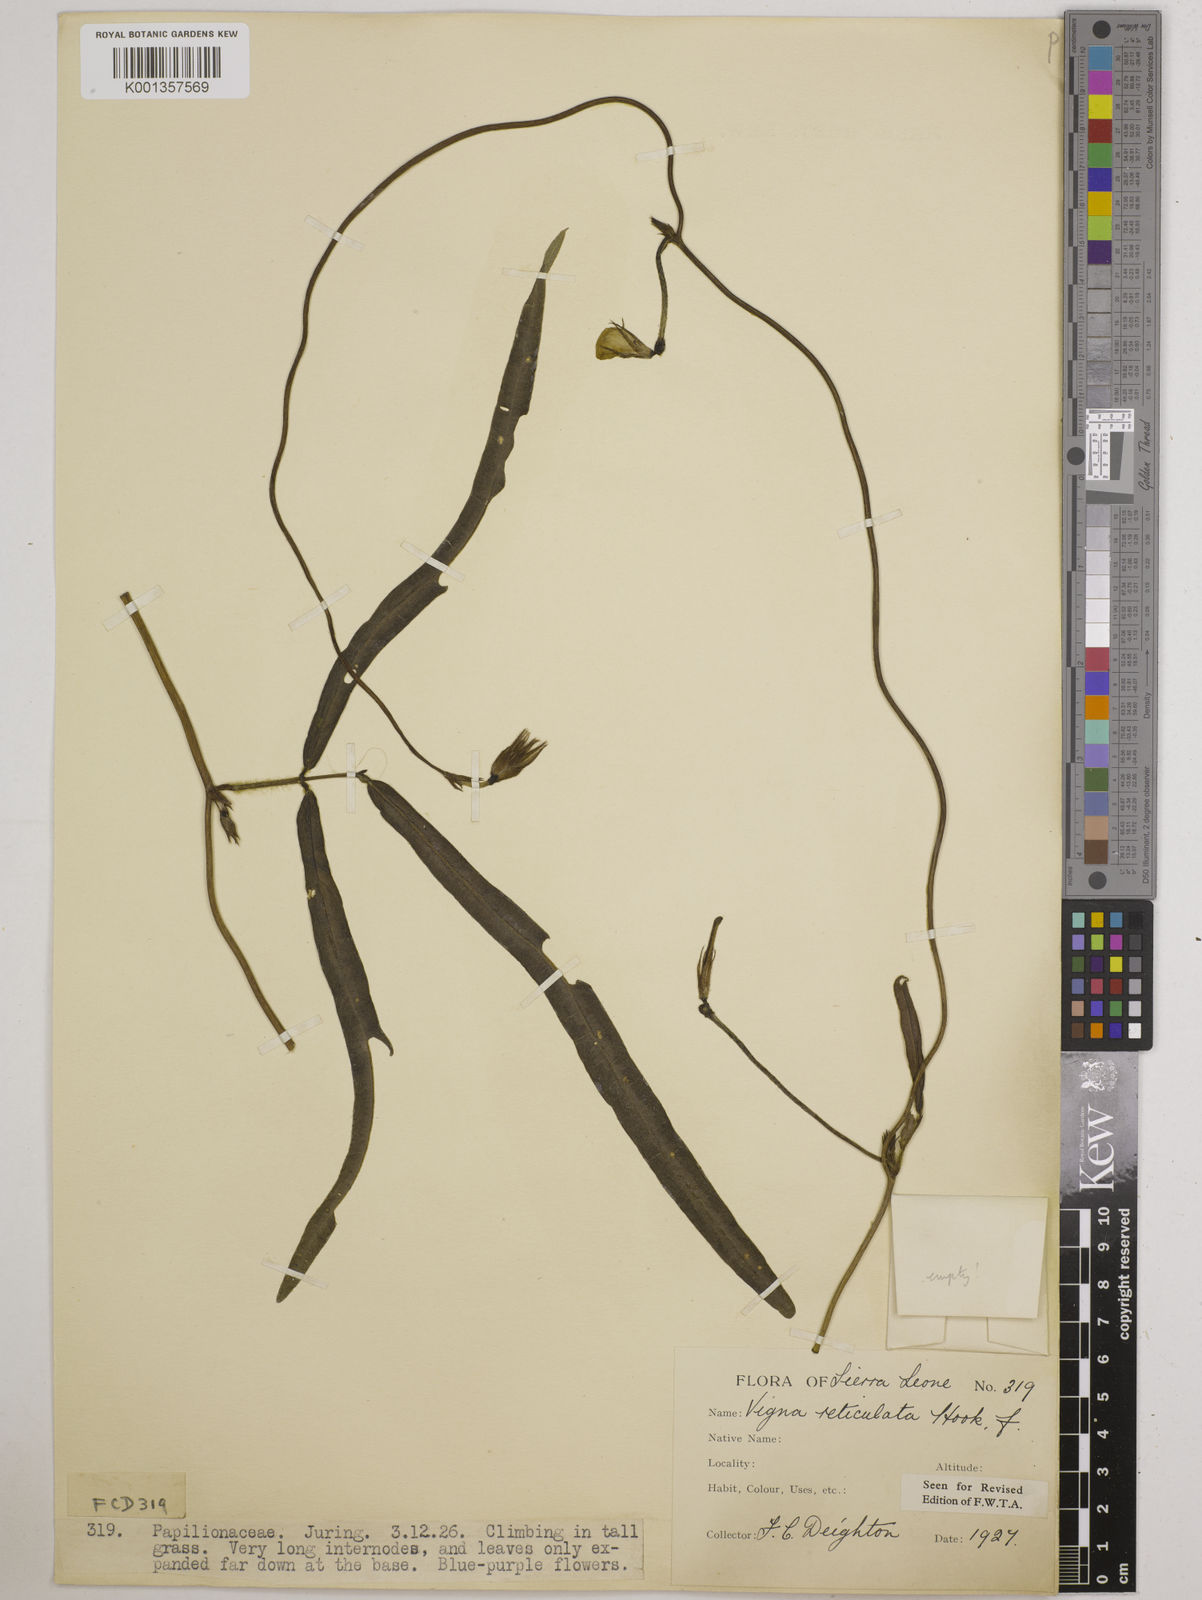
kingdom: Plantae
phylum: Tracheophyta
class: Magnoliopsida
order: Fabales
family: Fabaceae
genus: Vigna
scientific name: Vigna reticulata
